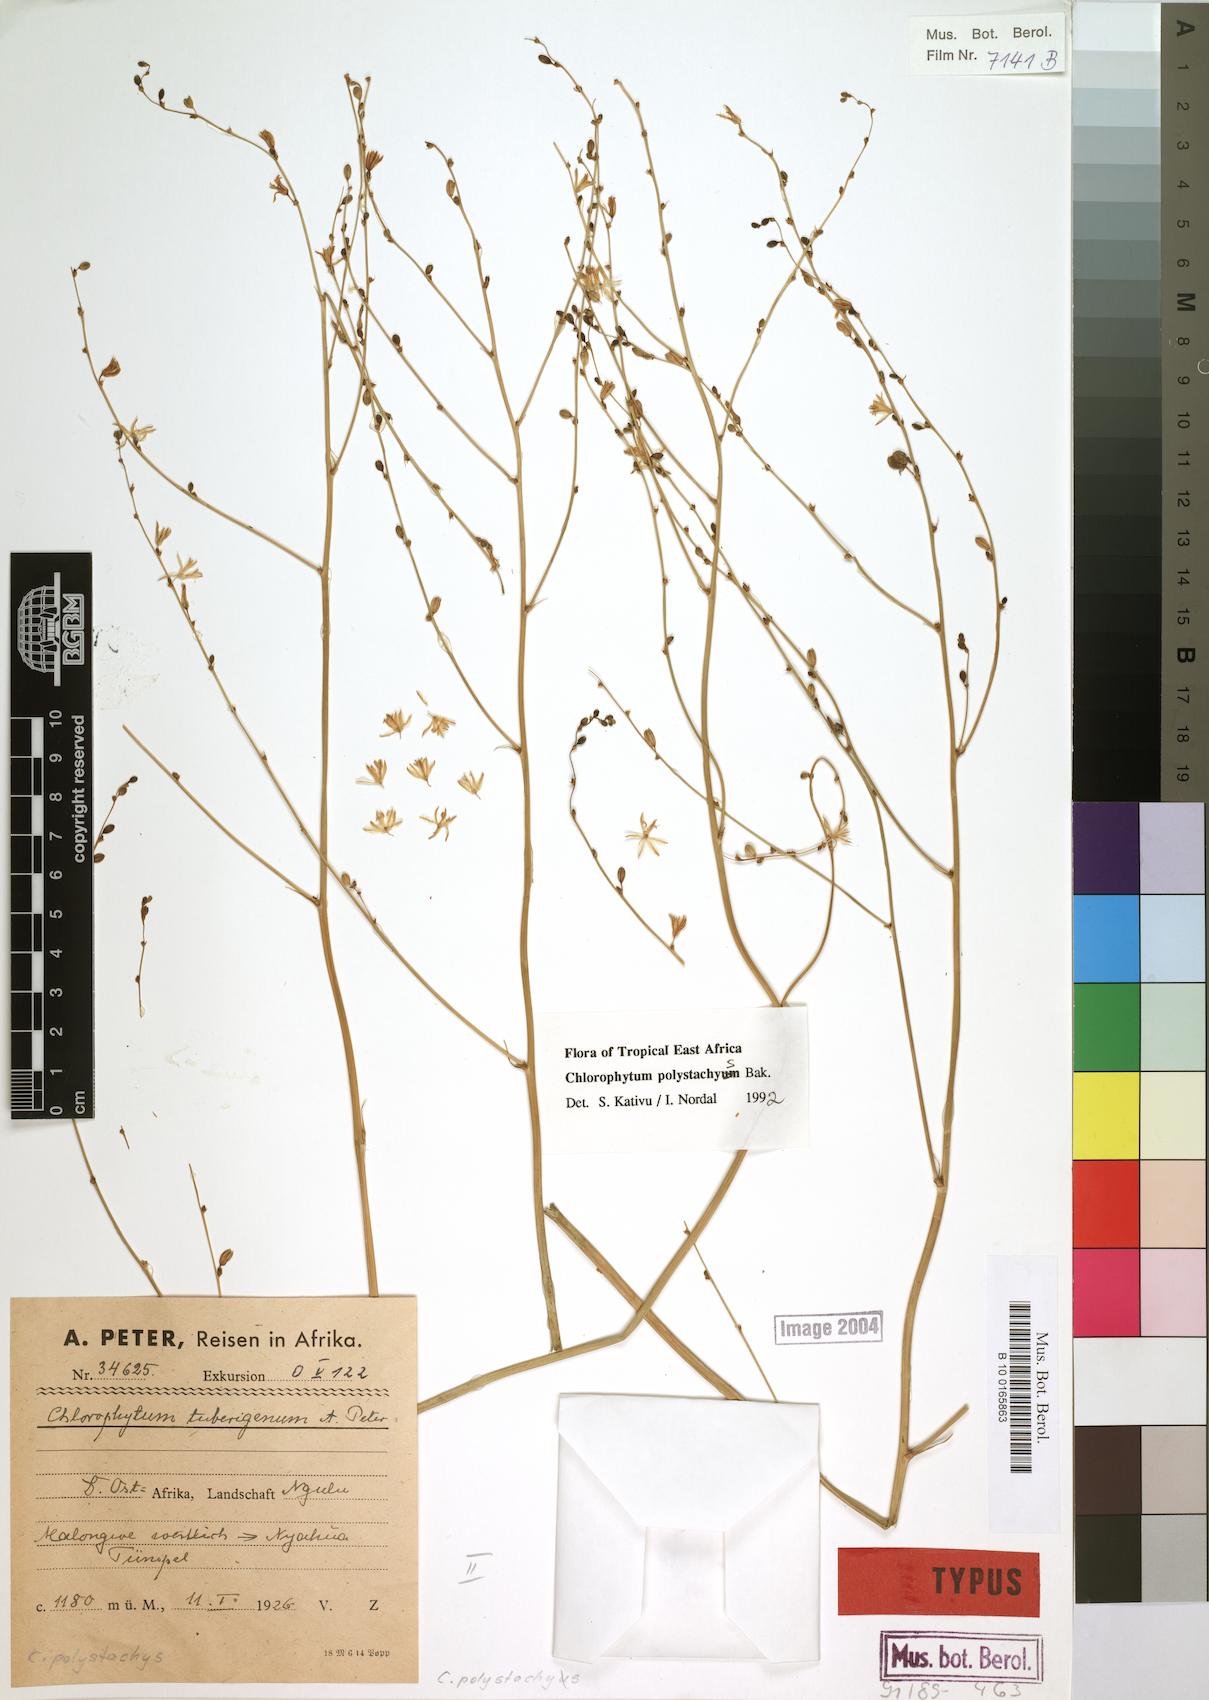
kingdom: Plantae
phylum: Tracheophyta
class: Liliopsida
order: Asparagales
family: Asparagaceae
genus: Chlorophytum
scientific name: Chlorophytum polystachys
